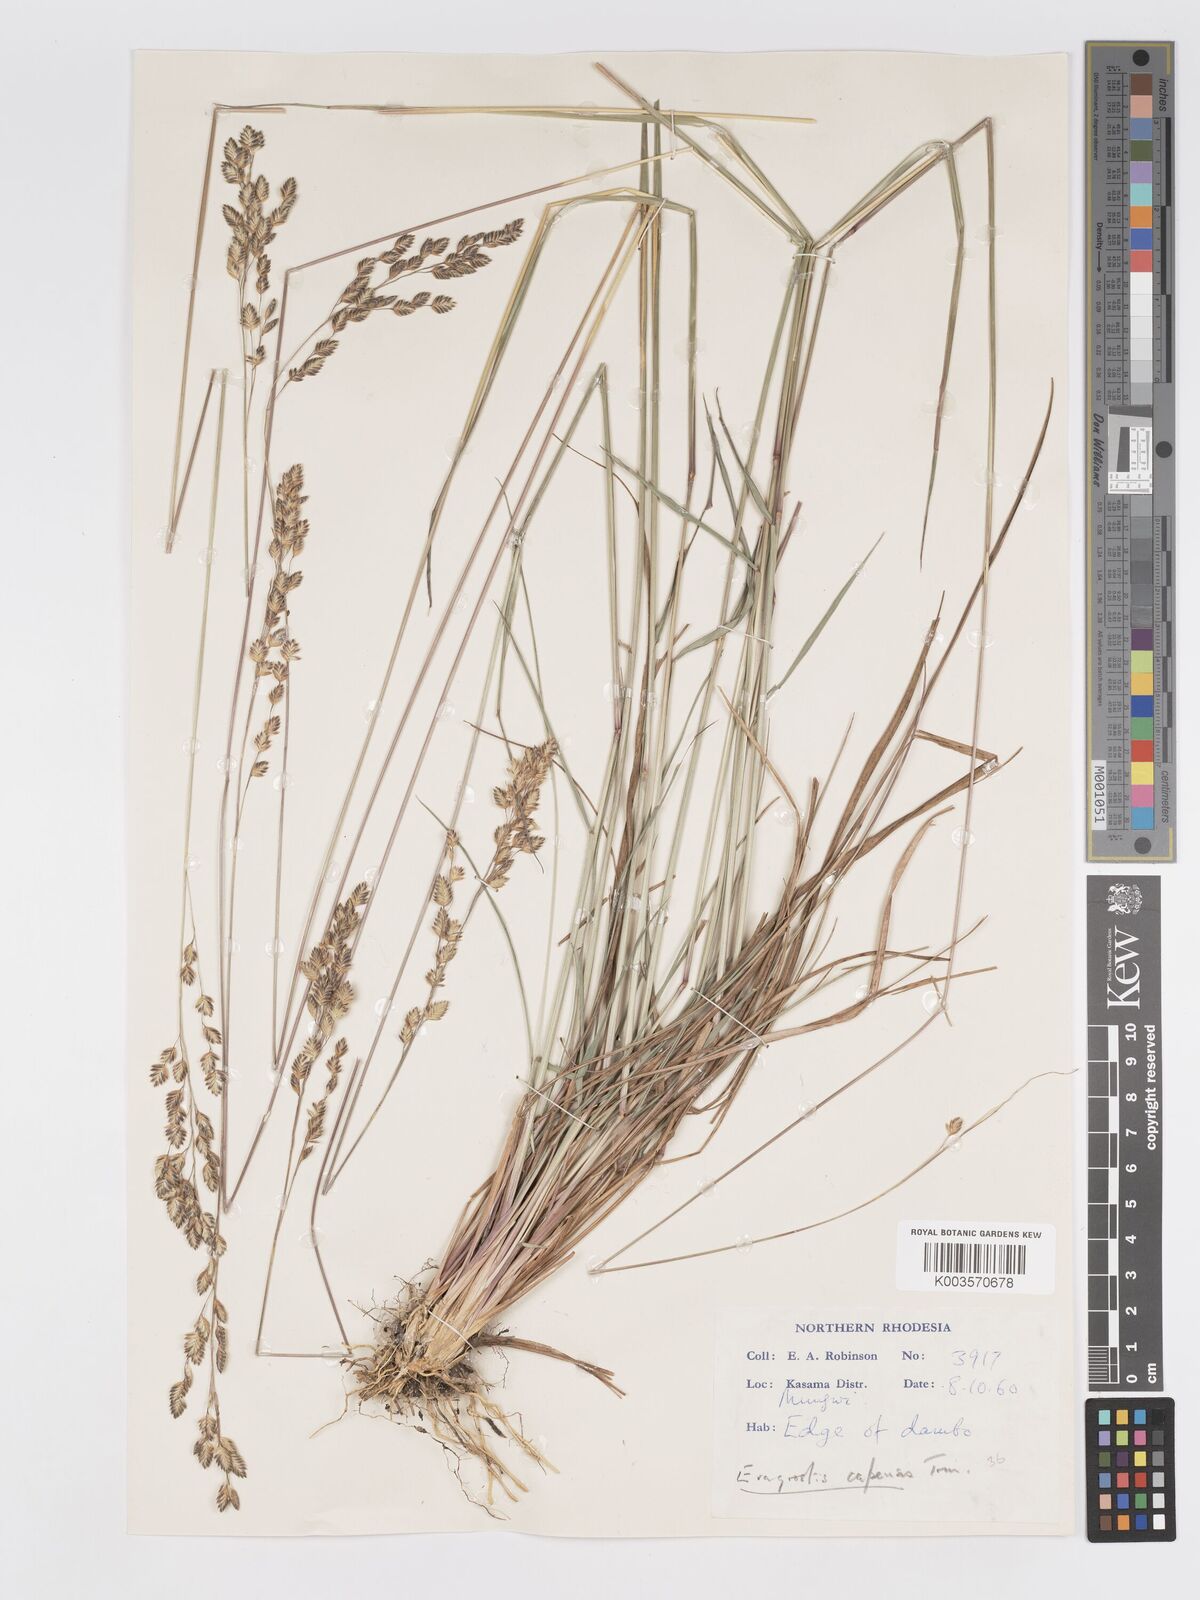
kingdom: Plantae
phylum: Tracheophyta
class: Liliopsida
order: Poales
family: Poaceae
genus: Eragrostis
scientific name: Eragrostis capensis
